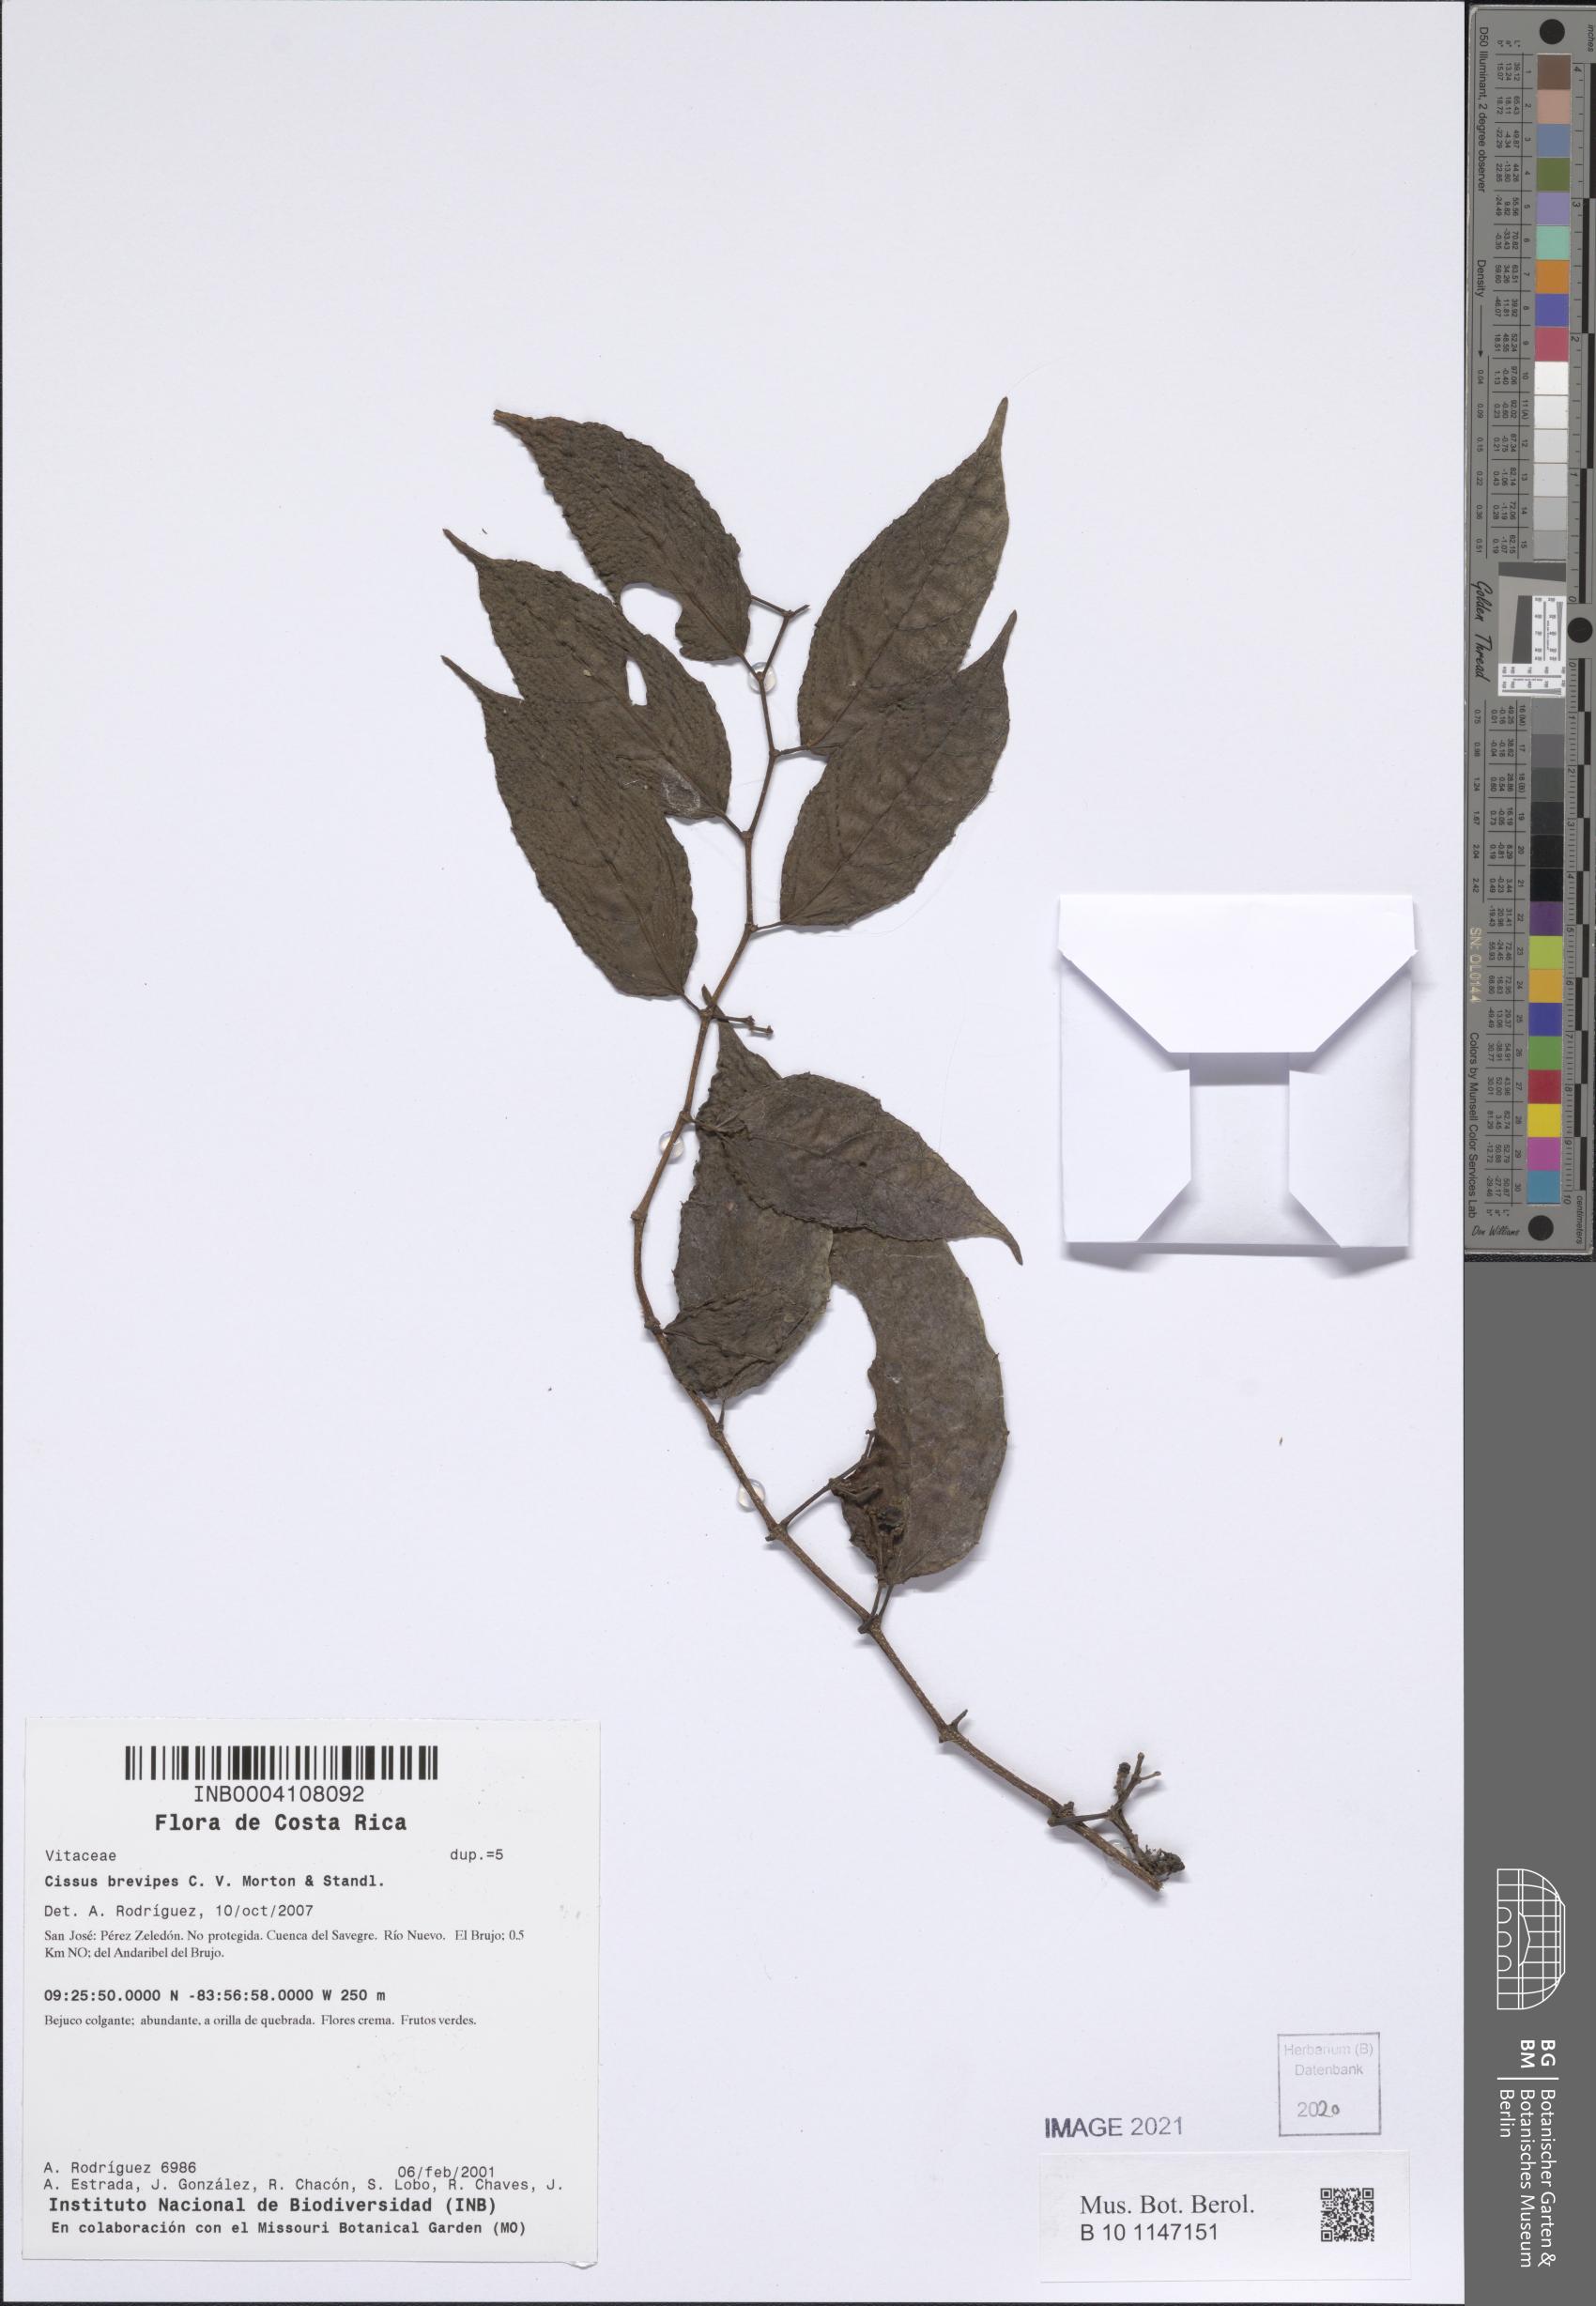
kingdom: Plantae
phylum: Tracheophyta
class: Magnoliopsida
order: Vitales
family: Vitaceae
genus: Cissus
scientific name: Cissus brevipes
